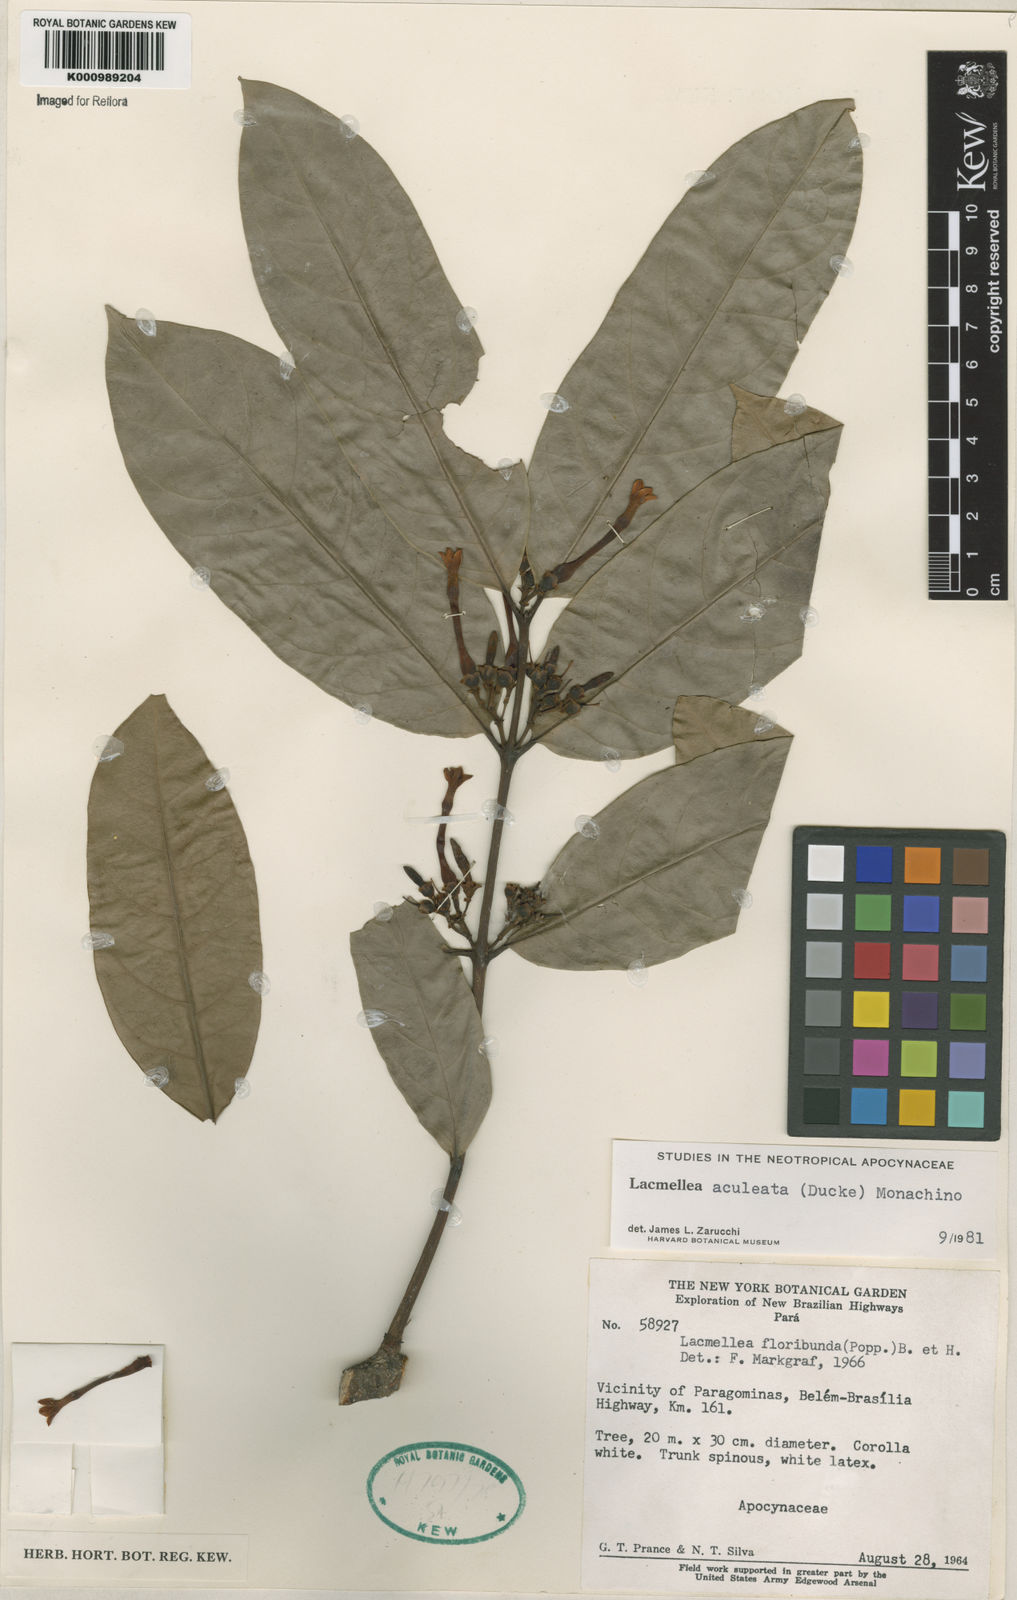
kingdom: Plantae
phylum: Tracheophyta
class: Magnoliopsida
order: Gentianales
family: Apocynaceae
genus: Lacmellea
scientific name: Lacmellea aculeata
